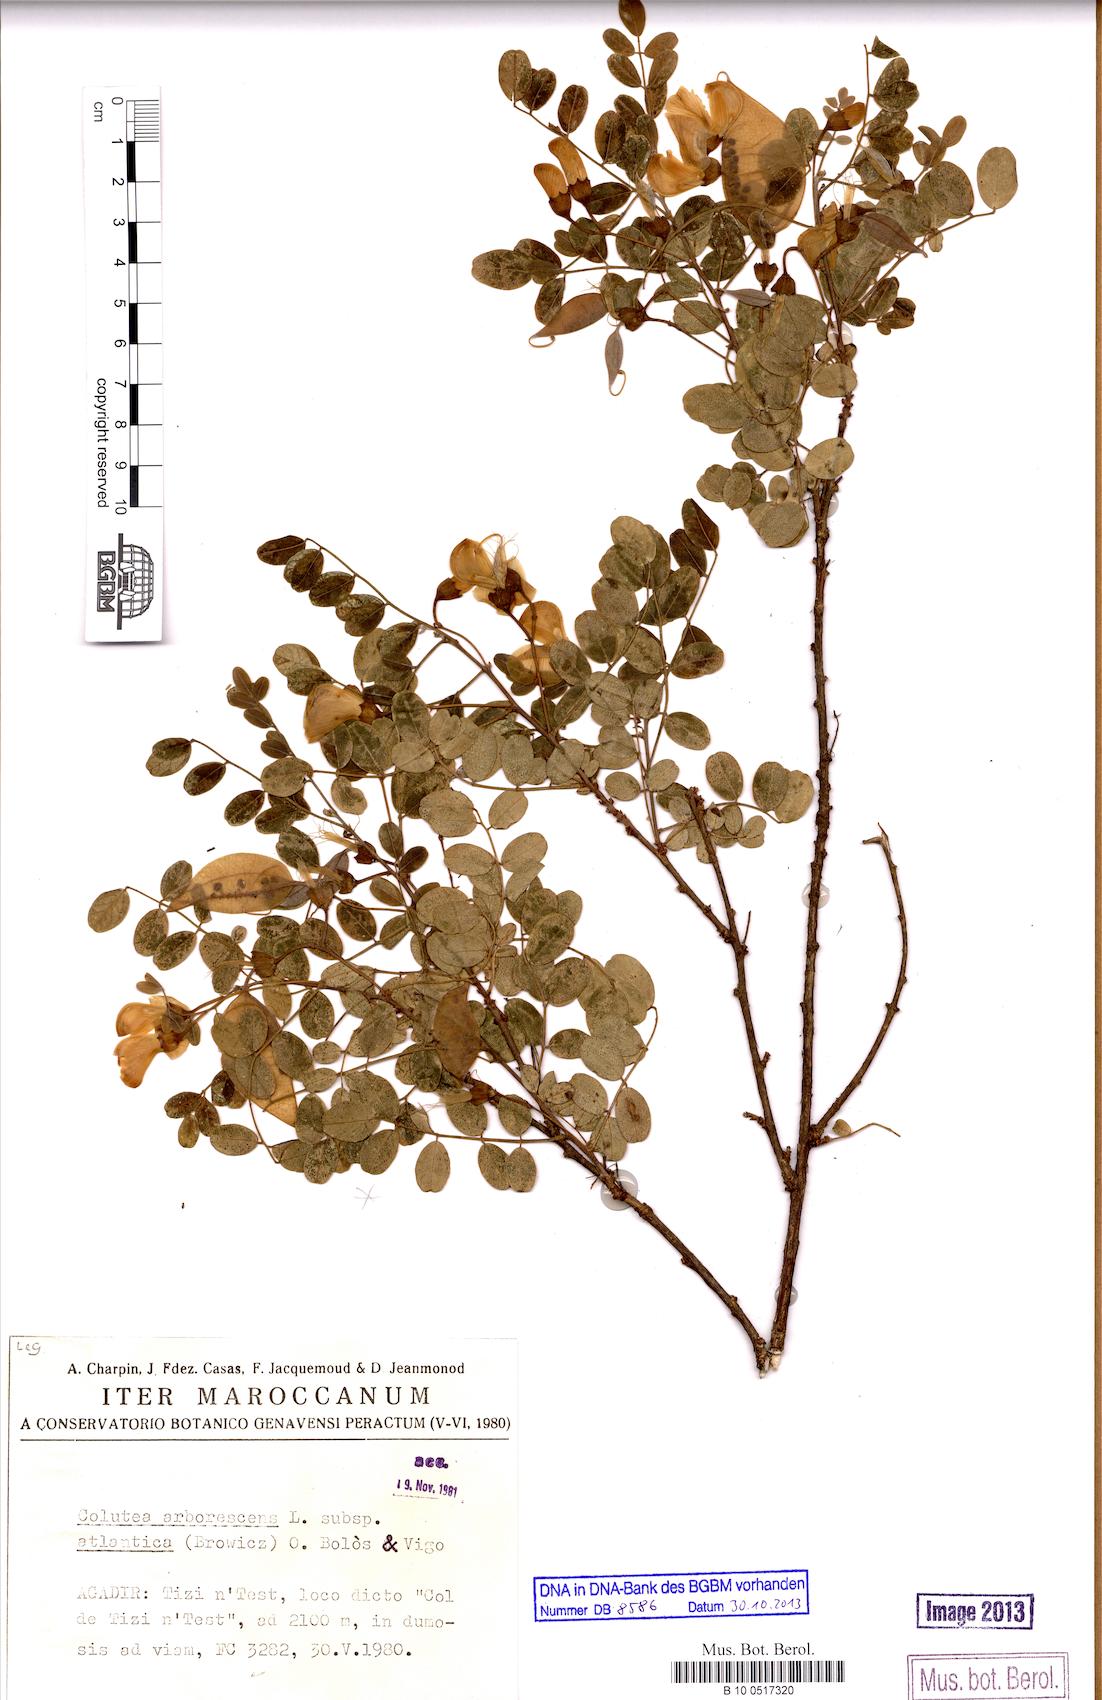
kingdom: Plantae
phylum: Tracheophyta
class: Magnoliopsida
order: Fabales
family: Fabaceae
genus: Colutea
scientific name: Colutea arborescens
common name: Bladder-senna
